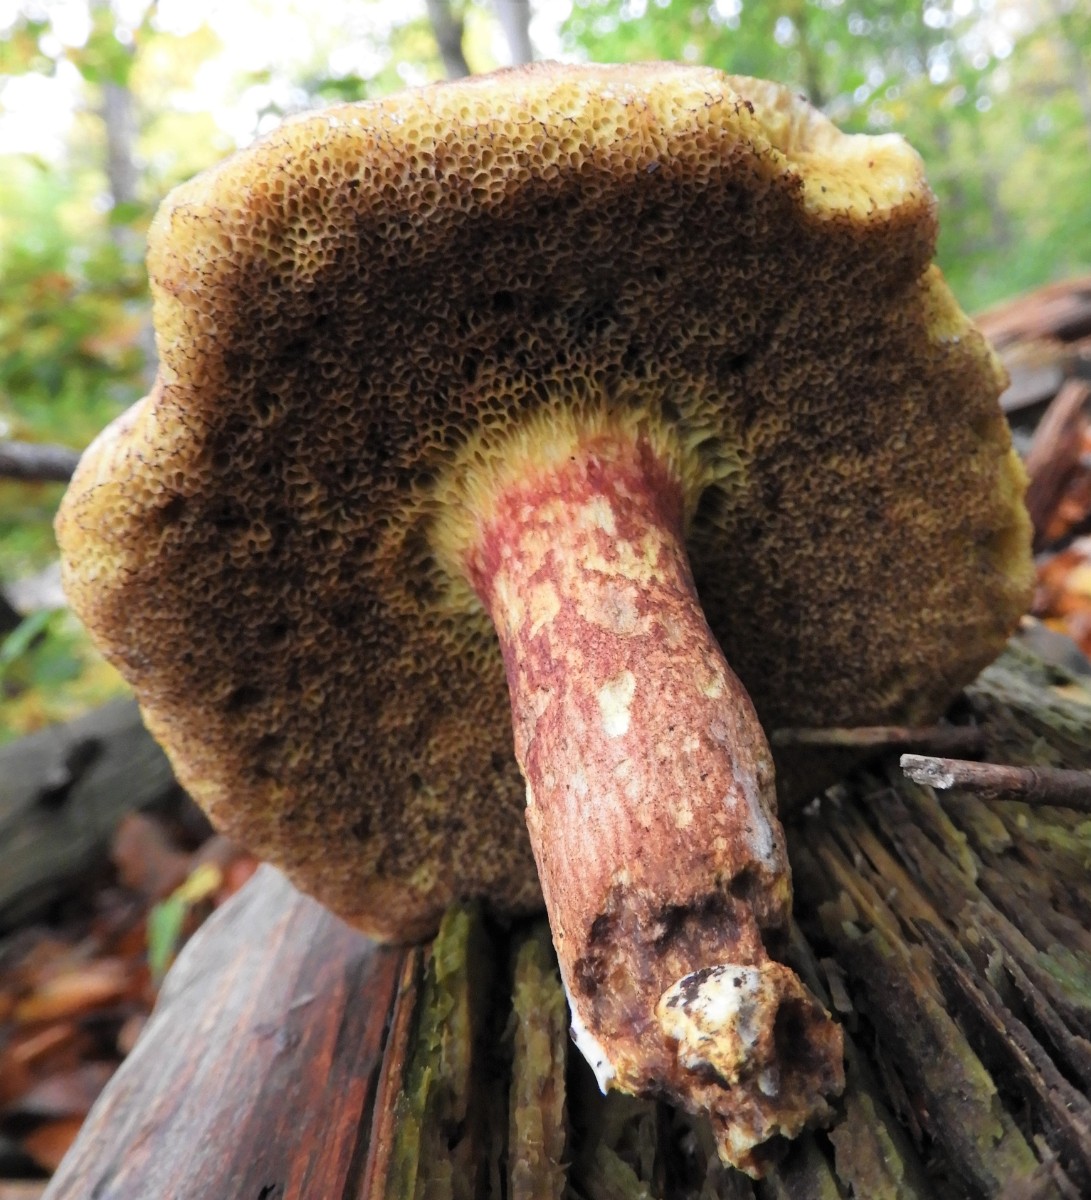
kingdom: Fungi
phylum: Basidiomycota
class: Agaricomycetes
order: Boletales
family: Boletaceae
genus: Xerocomellus
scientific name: Xerocomellus pruinatus
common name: dugget rørhat
